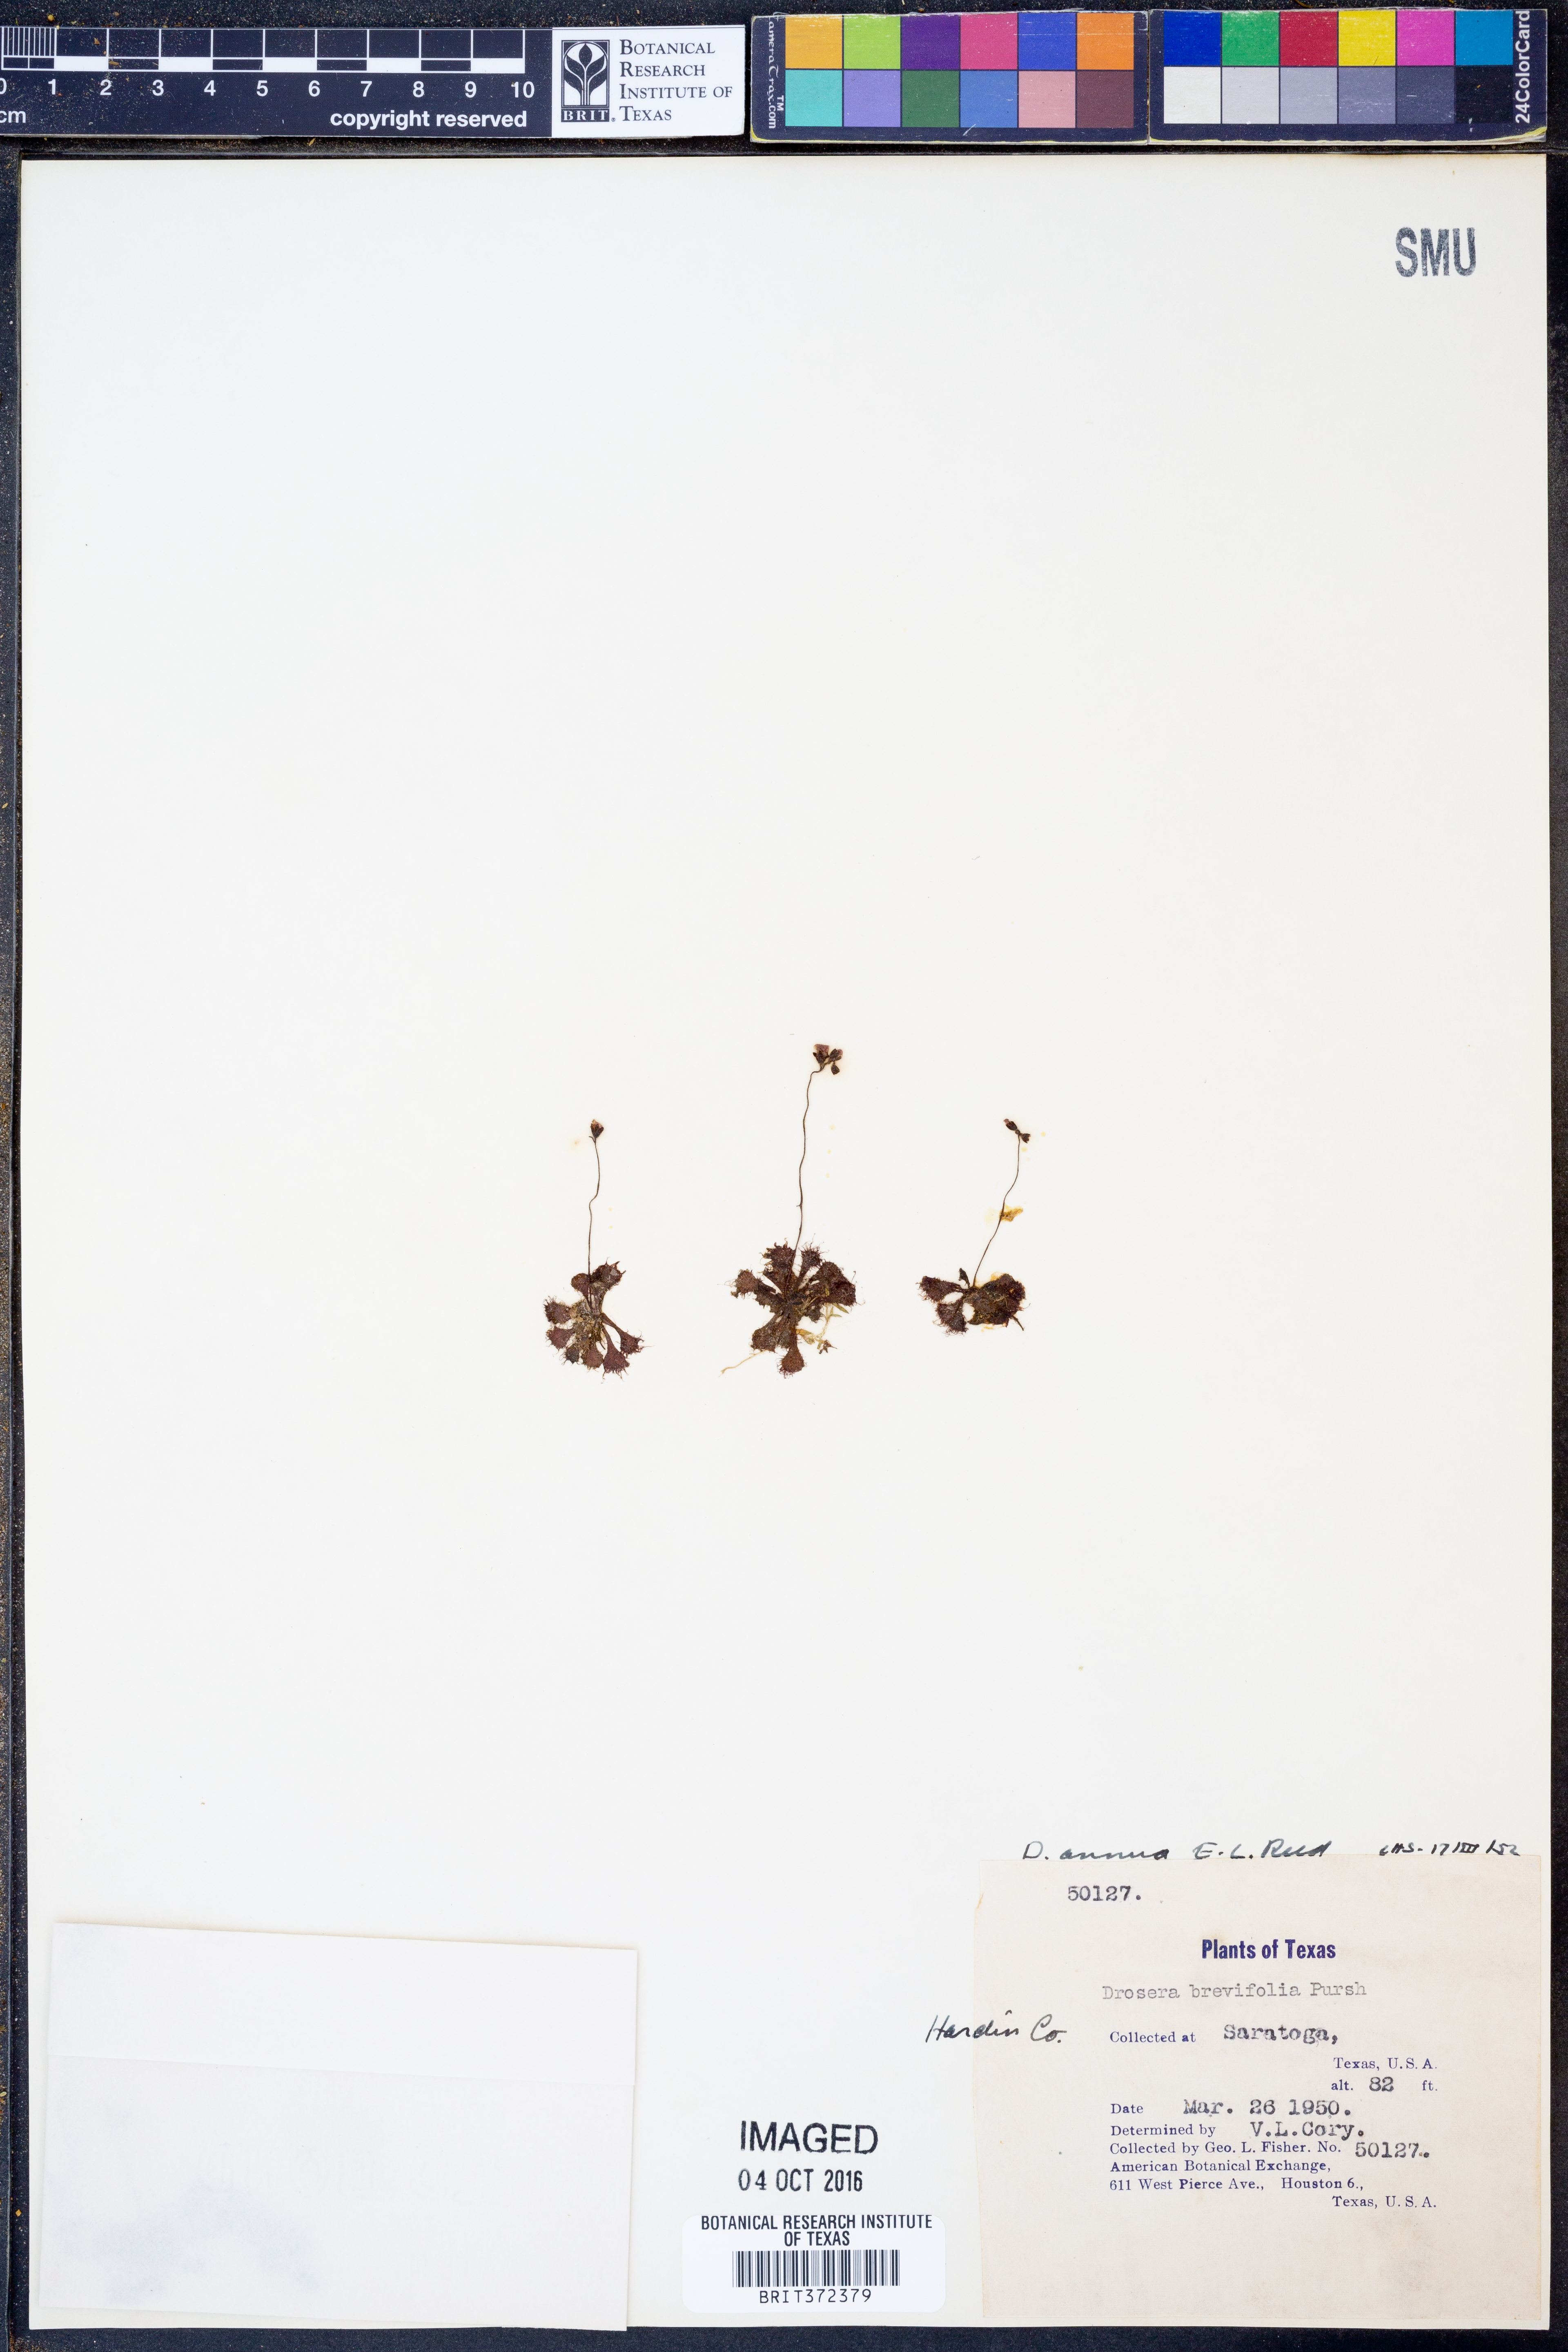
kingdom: Plantae
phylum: Tracheophyta
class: Magnoliopsida
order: Caryophyllales
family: Droseraceae
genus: Drosera
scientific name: Drosera brevifolia
